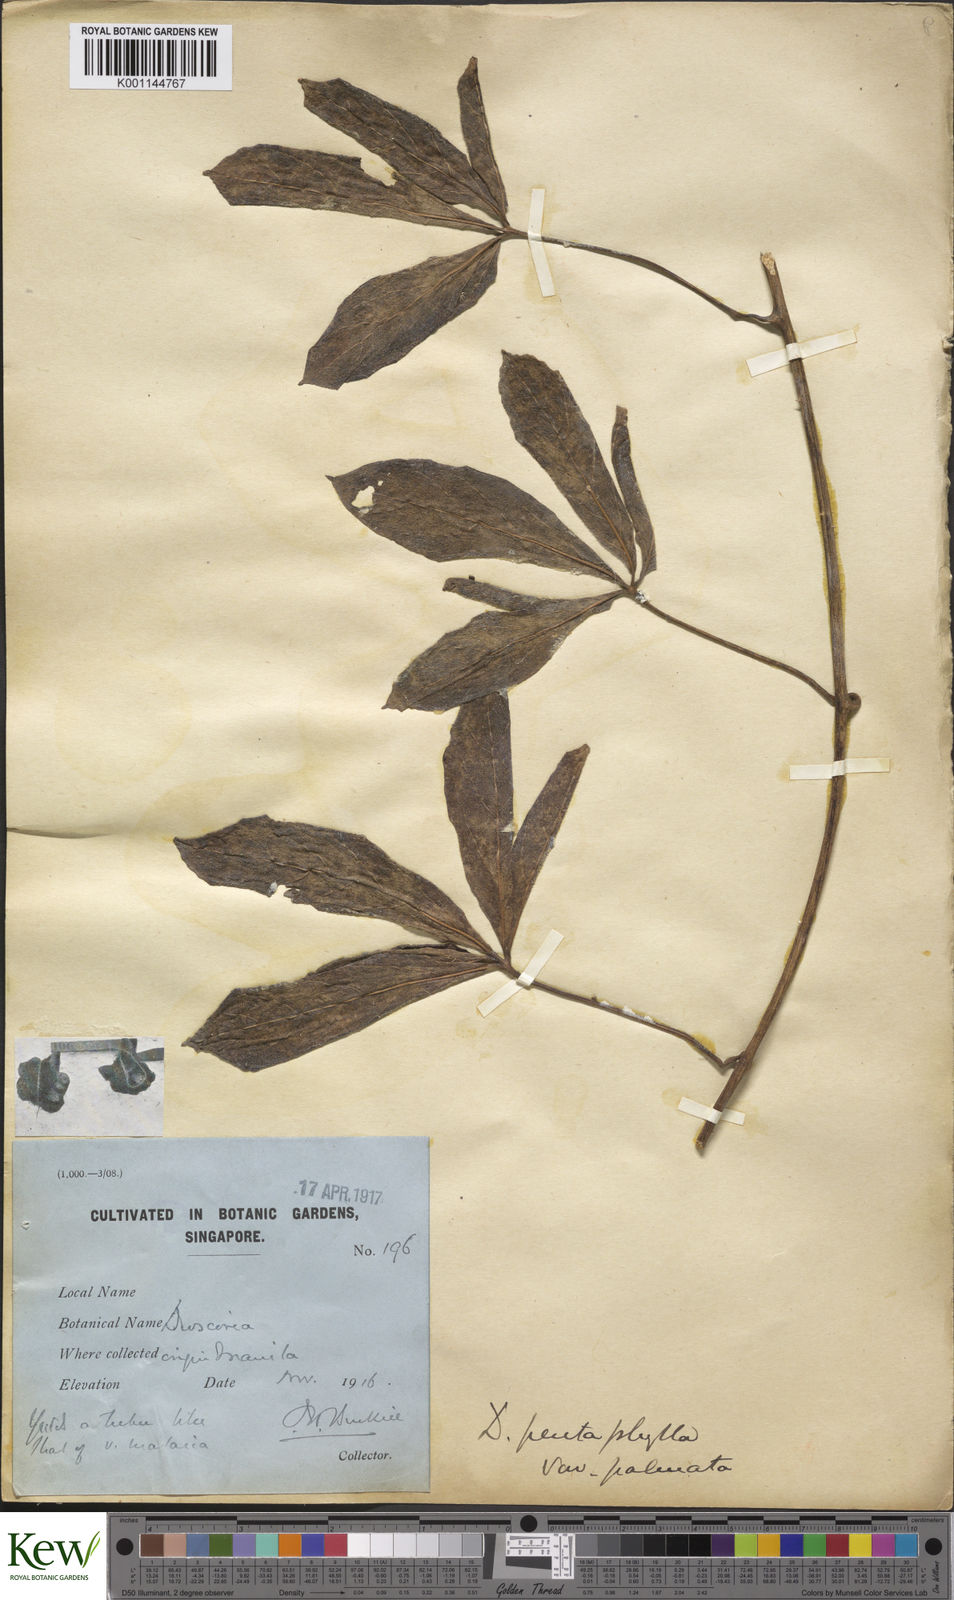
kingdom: Plantae
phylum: Tracheophyta
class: Liliopsida
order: Dioscoreales
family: Dioscoreaceae
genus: Dioscorea
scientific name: Dioscorea pentaphylla
